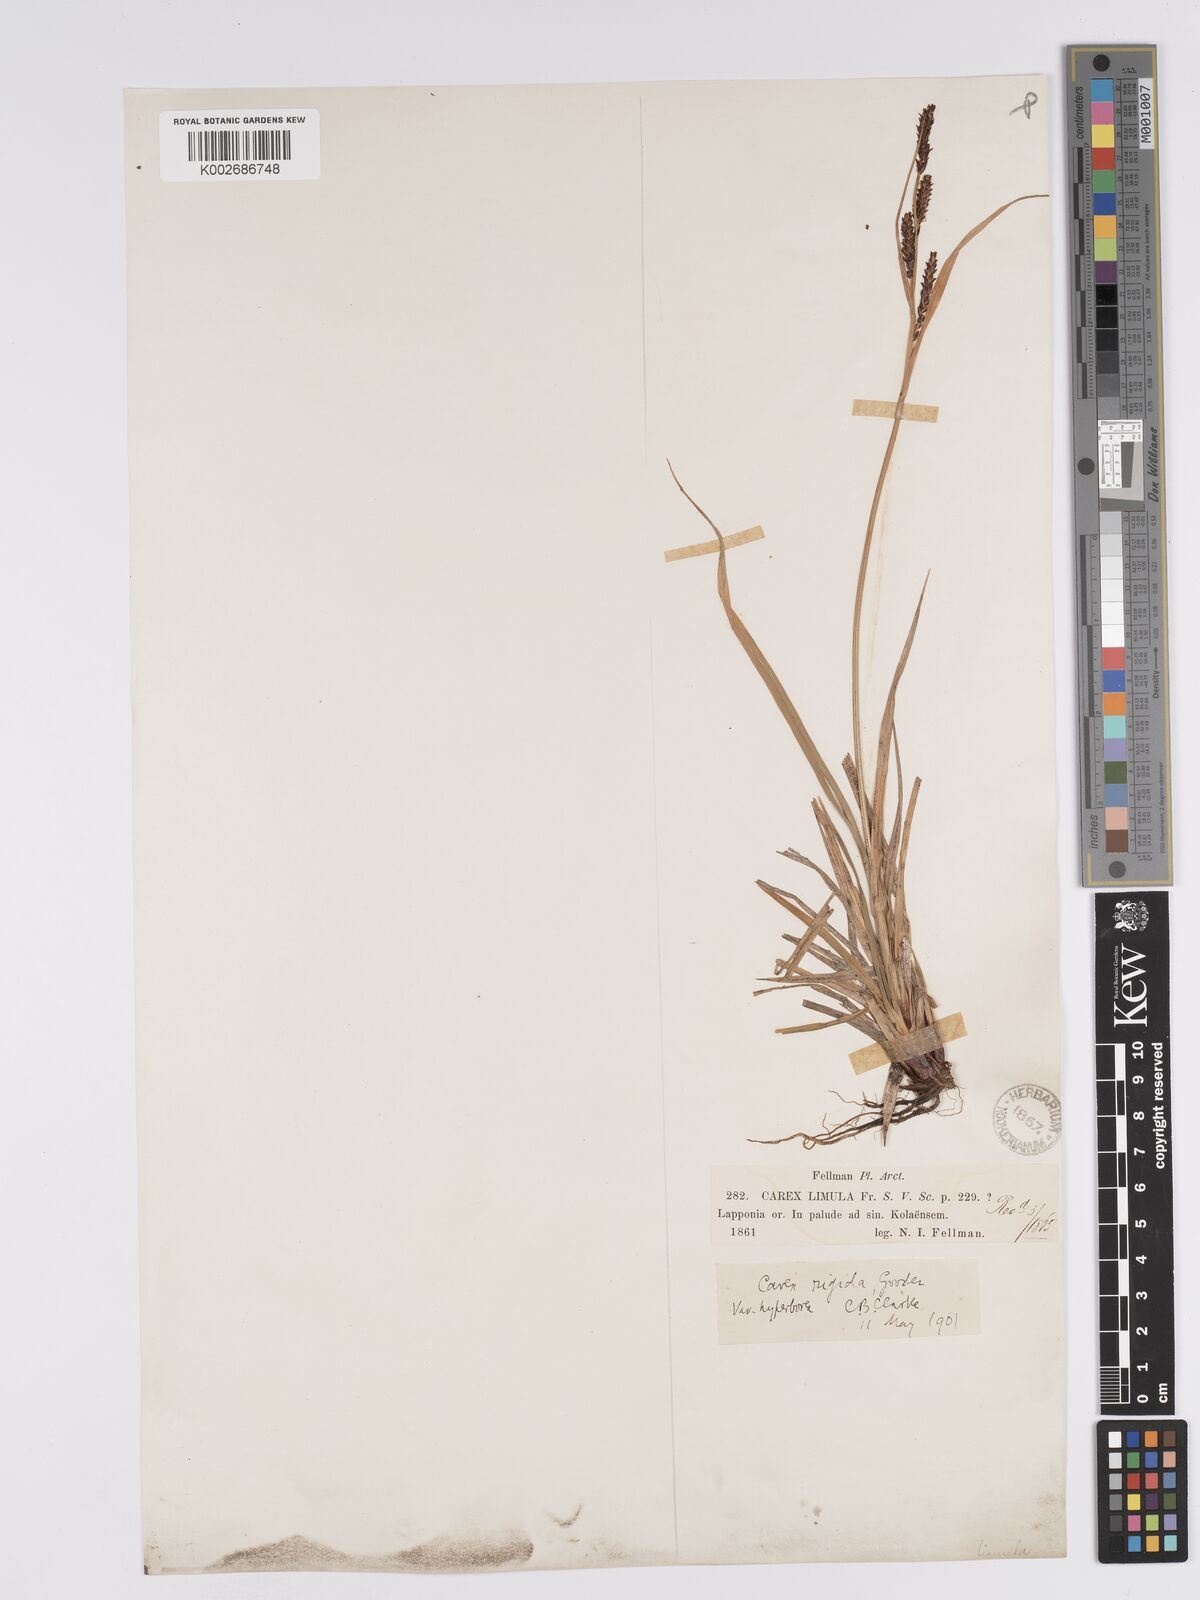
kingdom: Plantae
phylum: Tracheophyta
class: Liliopsida
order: Poales
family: Cyperaceae
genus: Carex
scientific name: Carex aquatilis
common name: Water sedge
